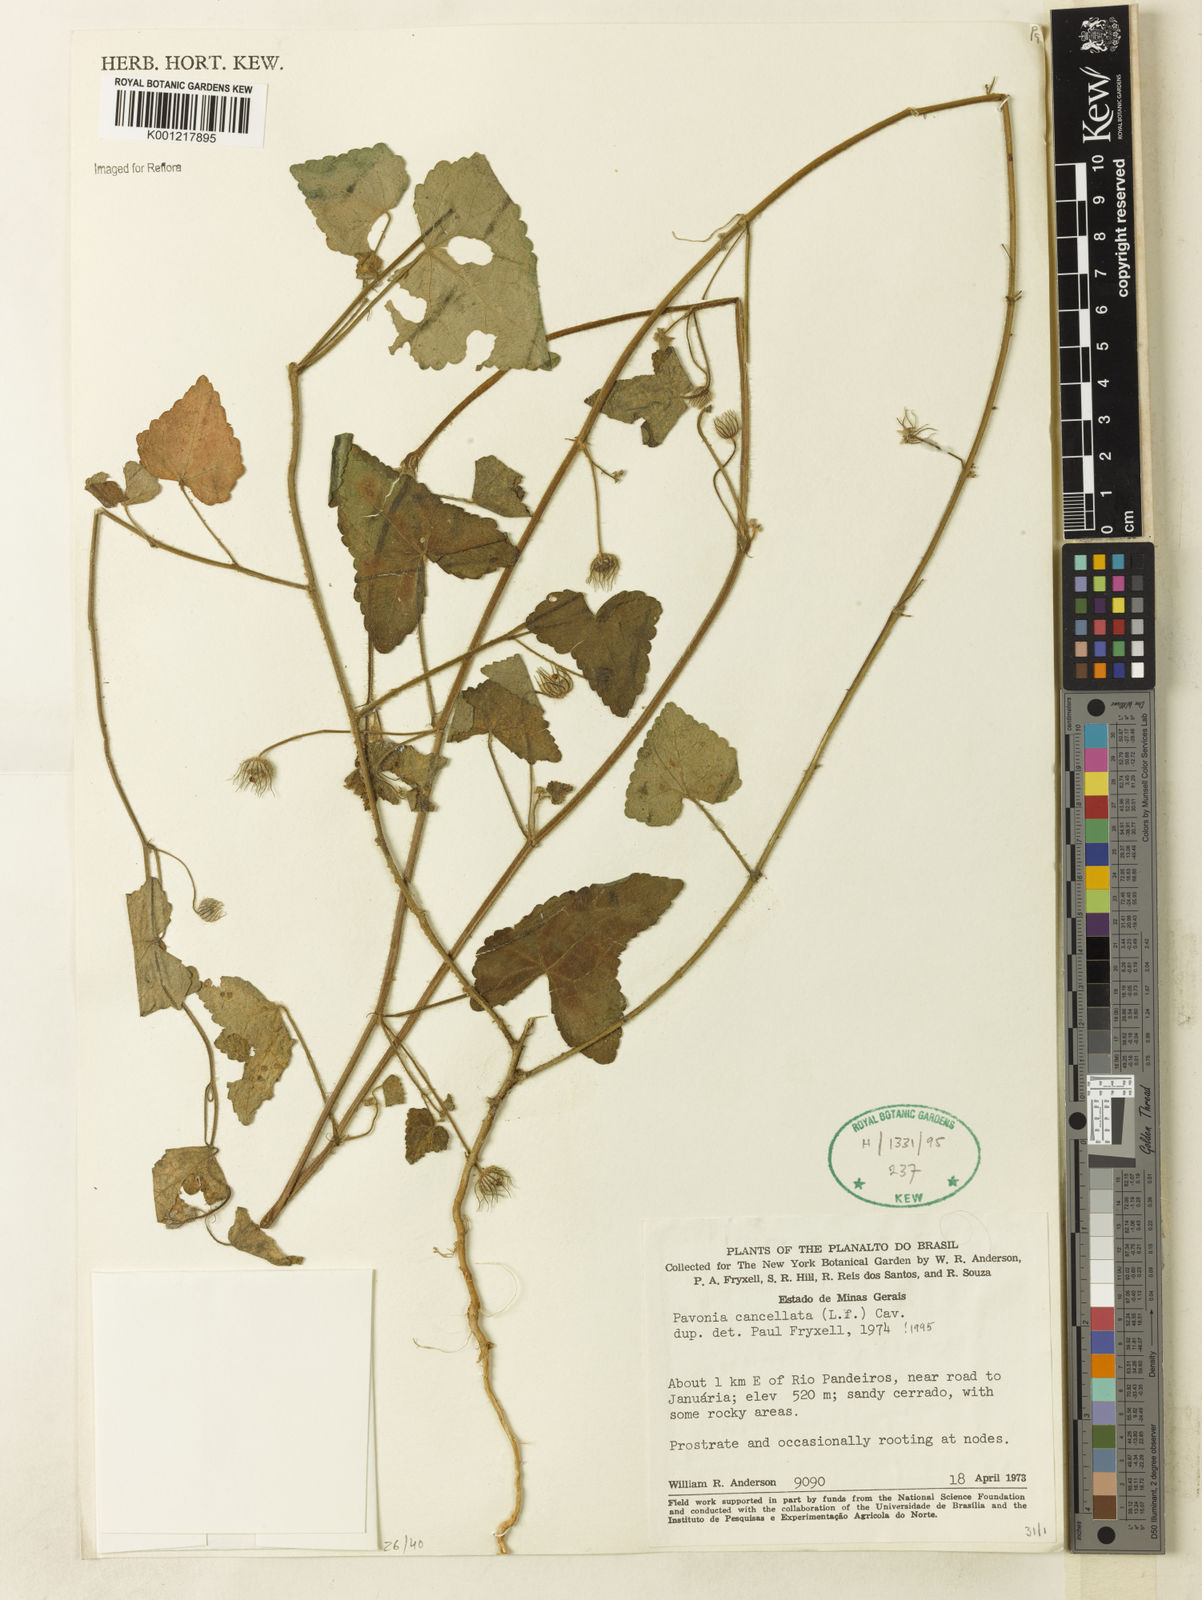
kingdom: Plantae
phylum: Tracheophyta
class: Magnoliopsida
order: Malvales
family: Malvaceae
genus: Pavonia
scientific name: Pavonia cancellata
